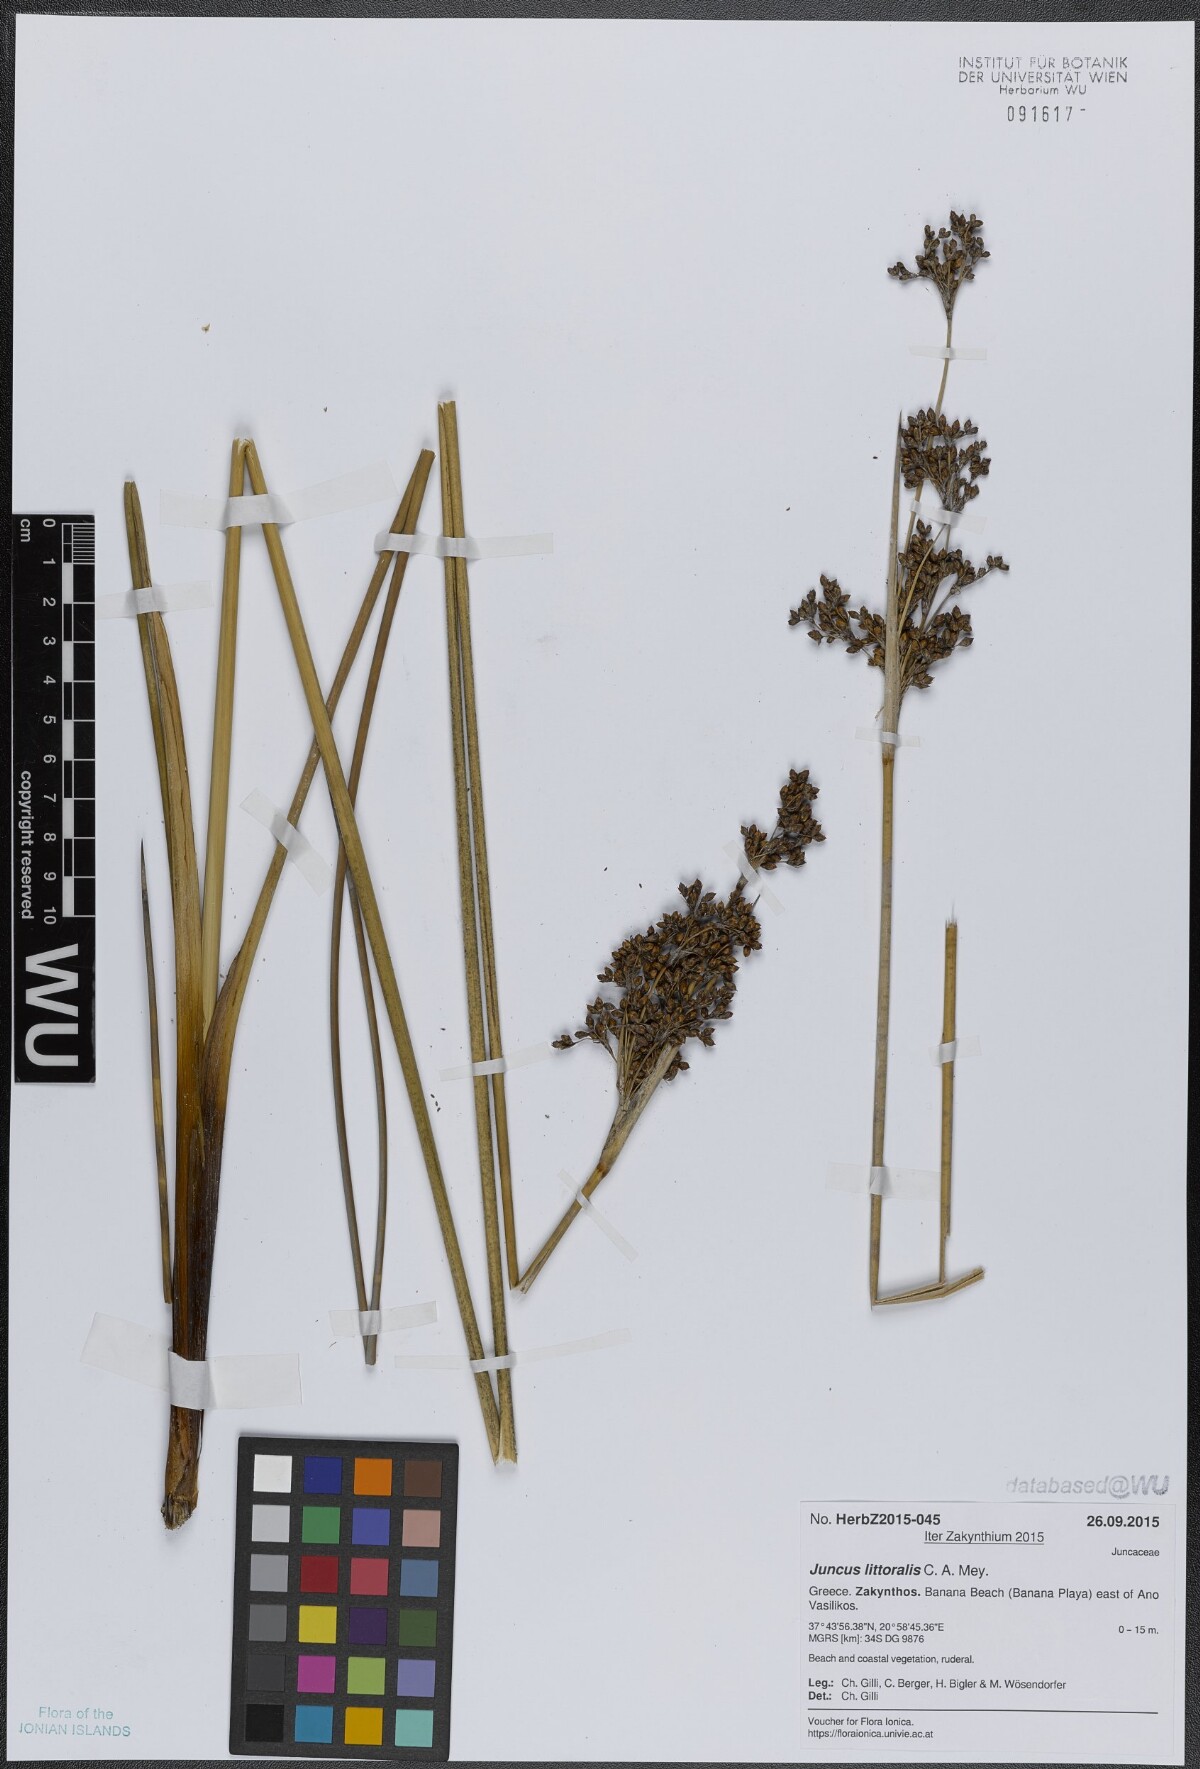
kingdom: Plantae
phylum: Tracheophyta
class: Liliopsida
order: Poales
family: Juncaceae
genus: Juncus
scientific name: Juncus littoralis
